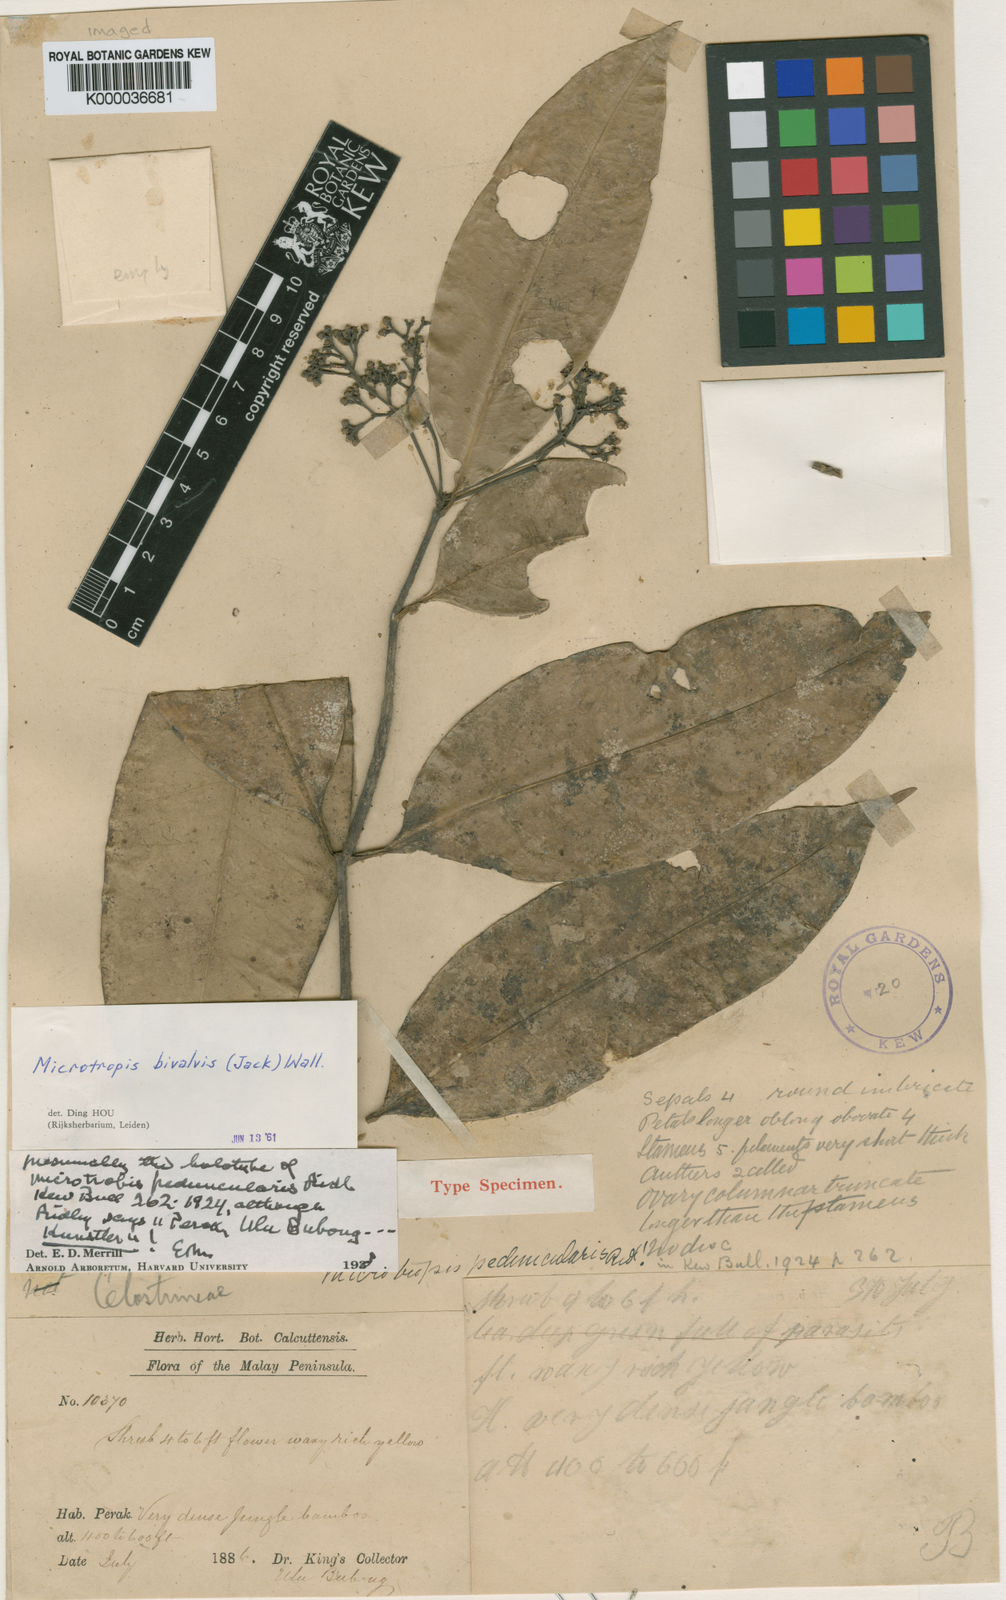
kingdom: Plantae
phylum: Tracheophyta
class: Magnoliopsida
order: Celastrales
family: Celastraceae
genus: Microtropis
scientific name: Microtropis bivalvis
